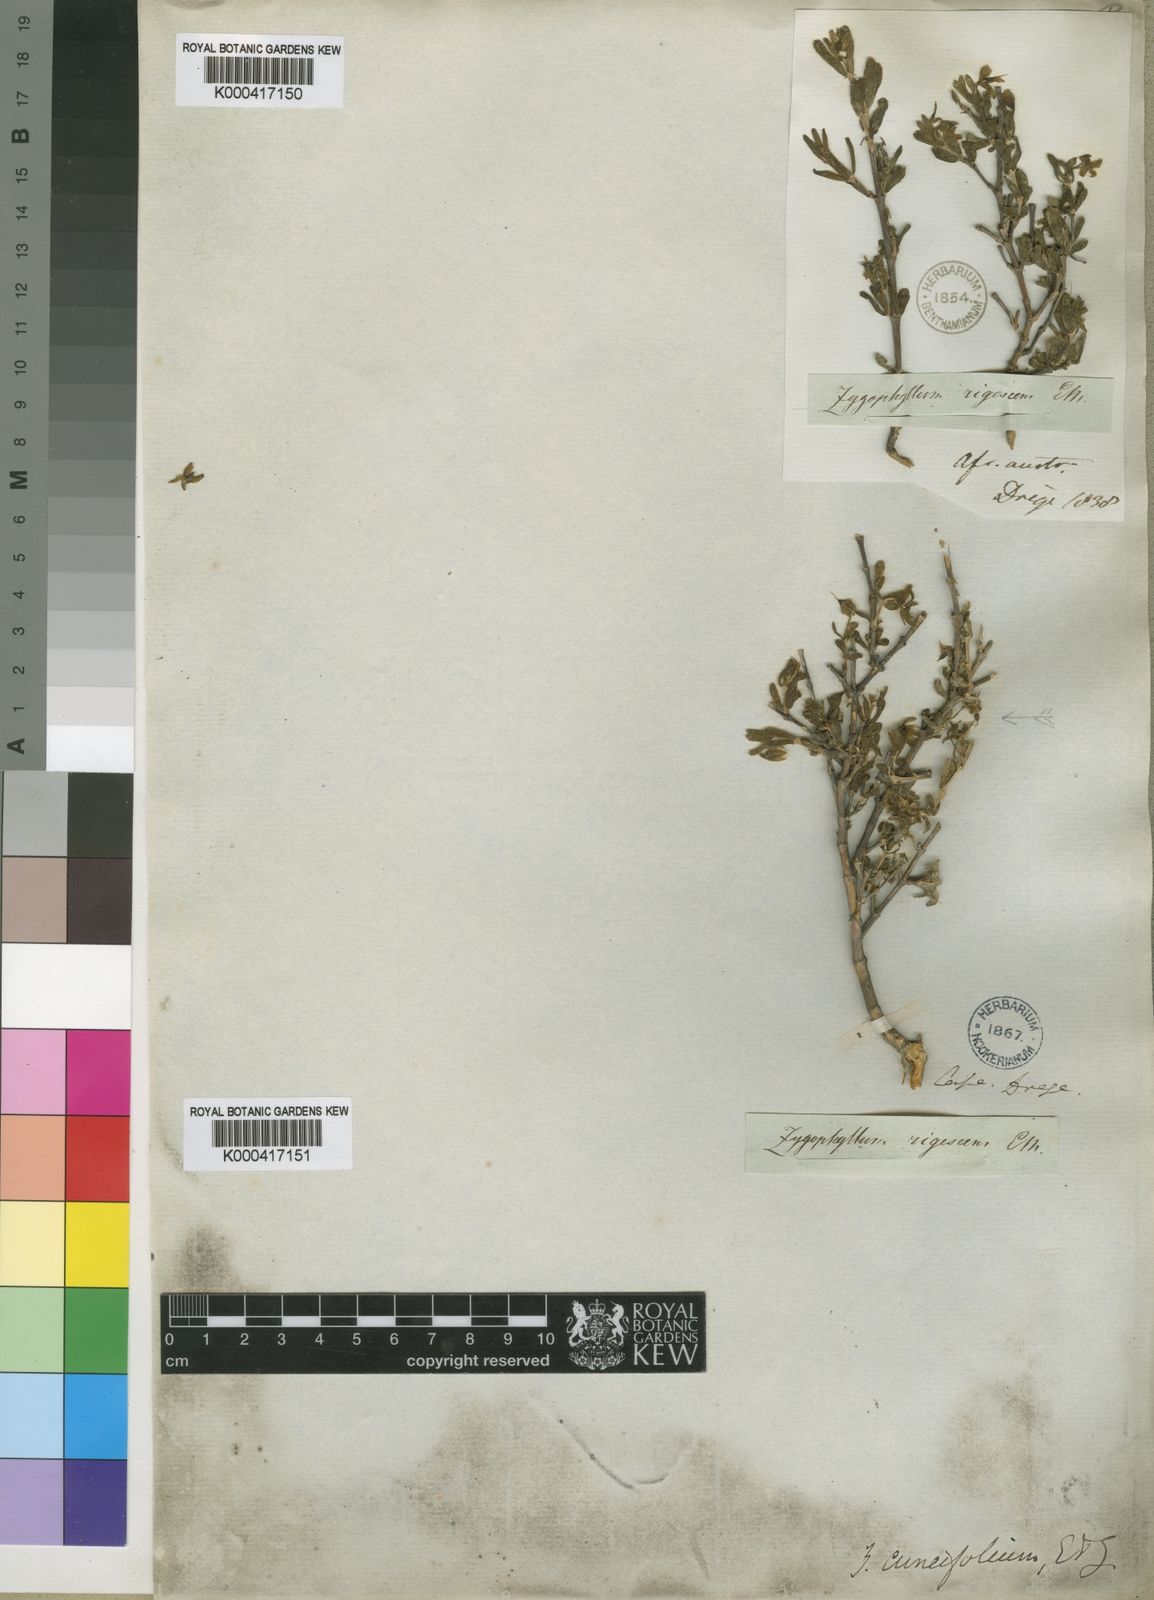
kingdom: Plantae
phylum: Tracheophyta
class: Magnoliopsida
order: Zygophyllales
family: Zygophyllaceae
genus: Roepera
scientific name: Roepera pubescens
